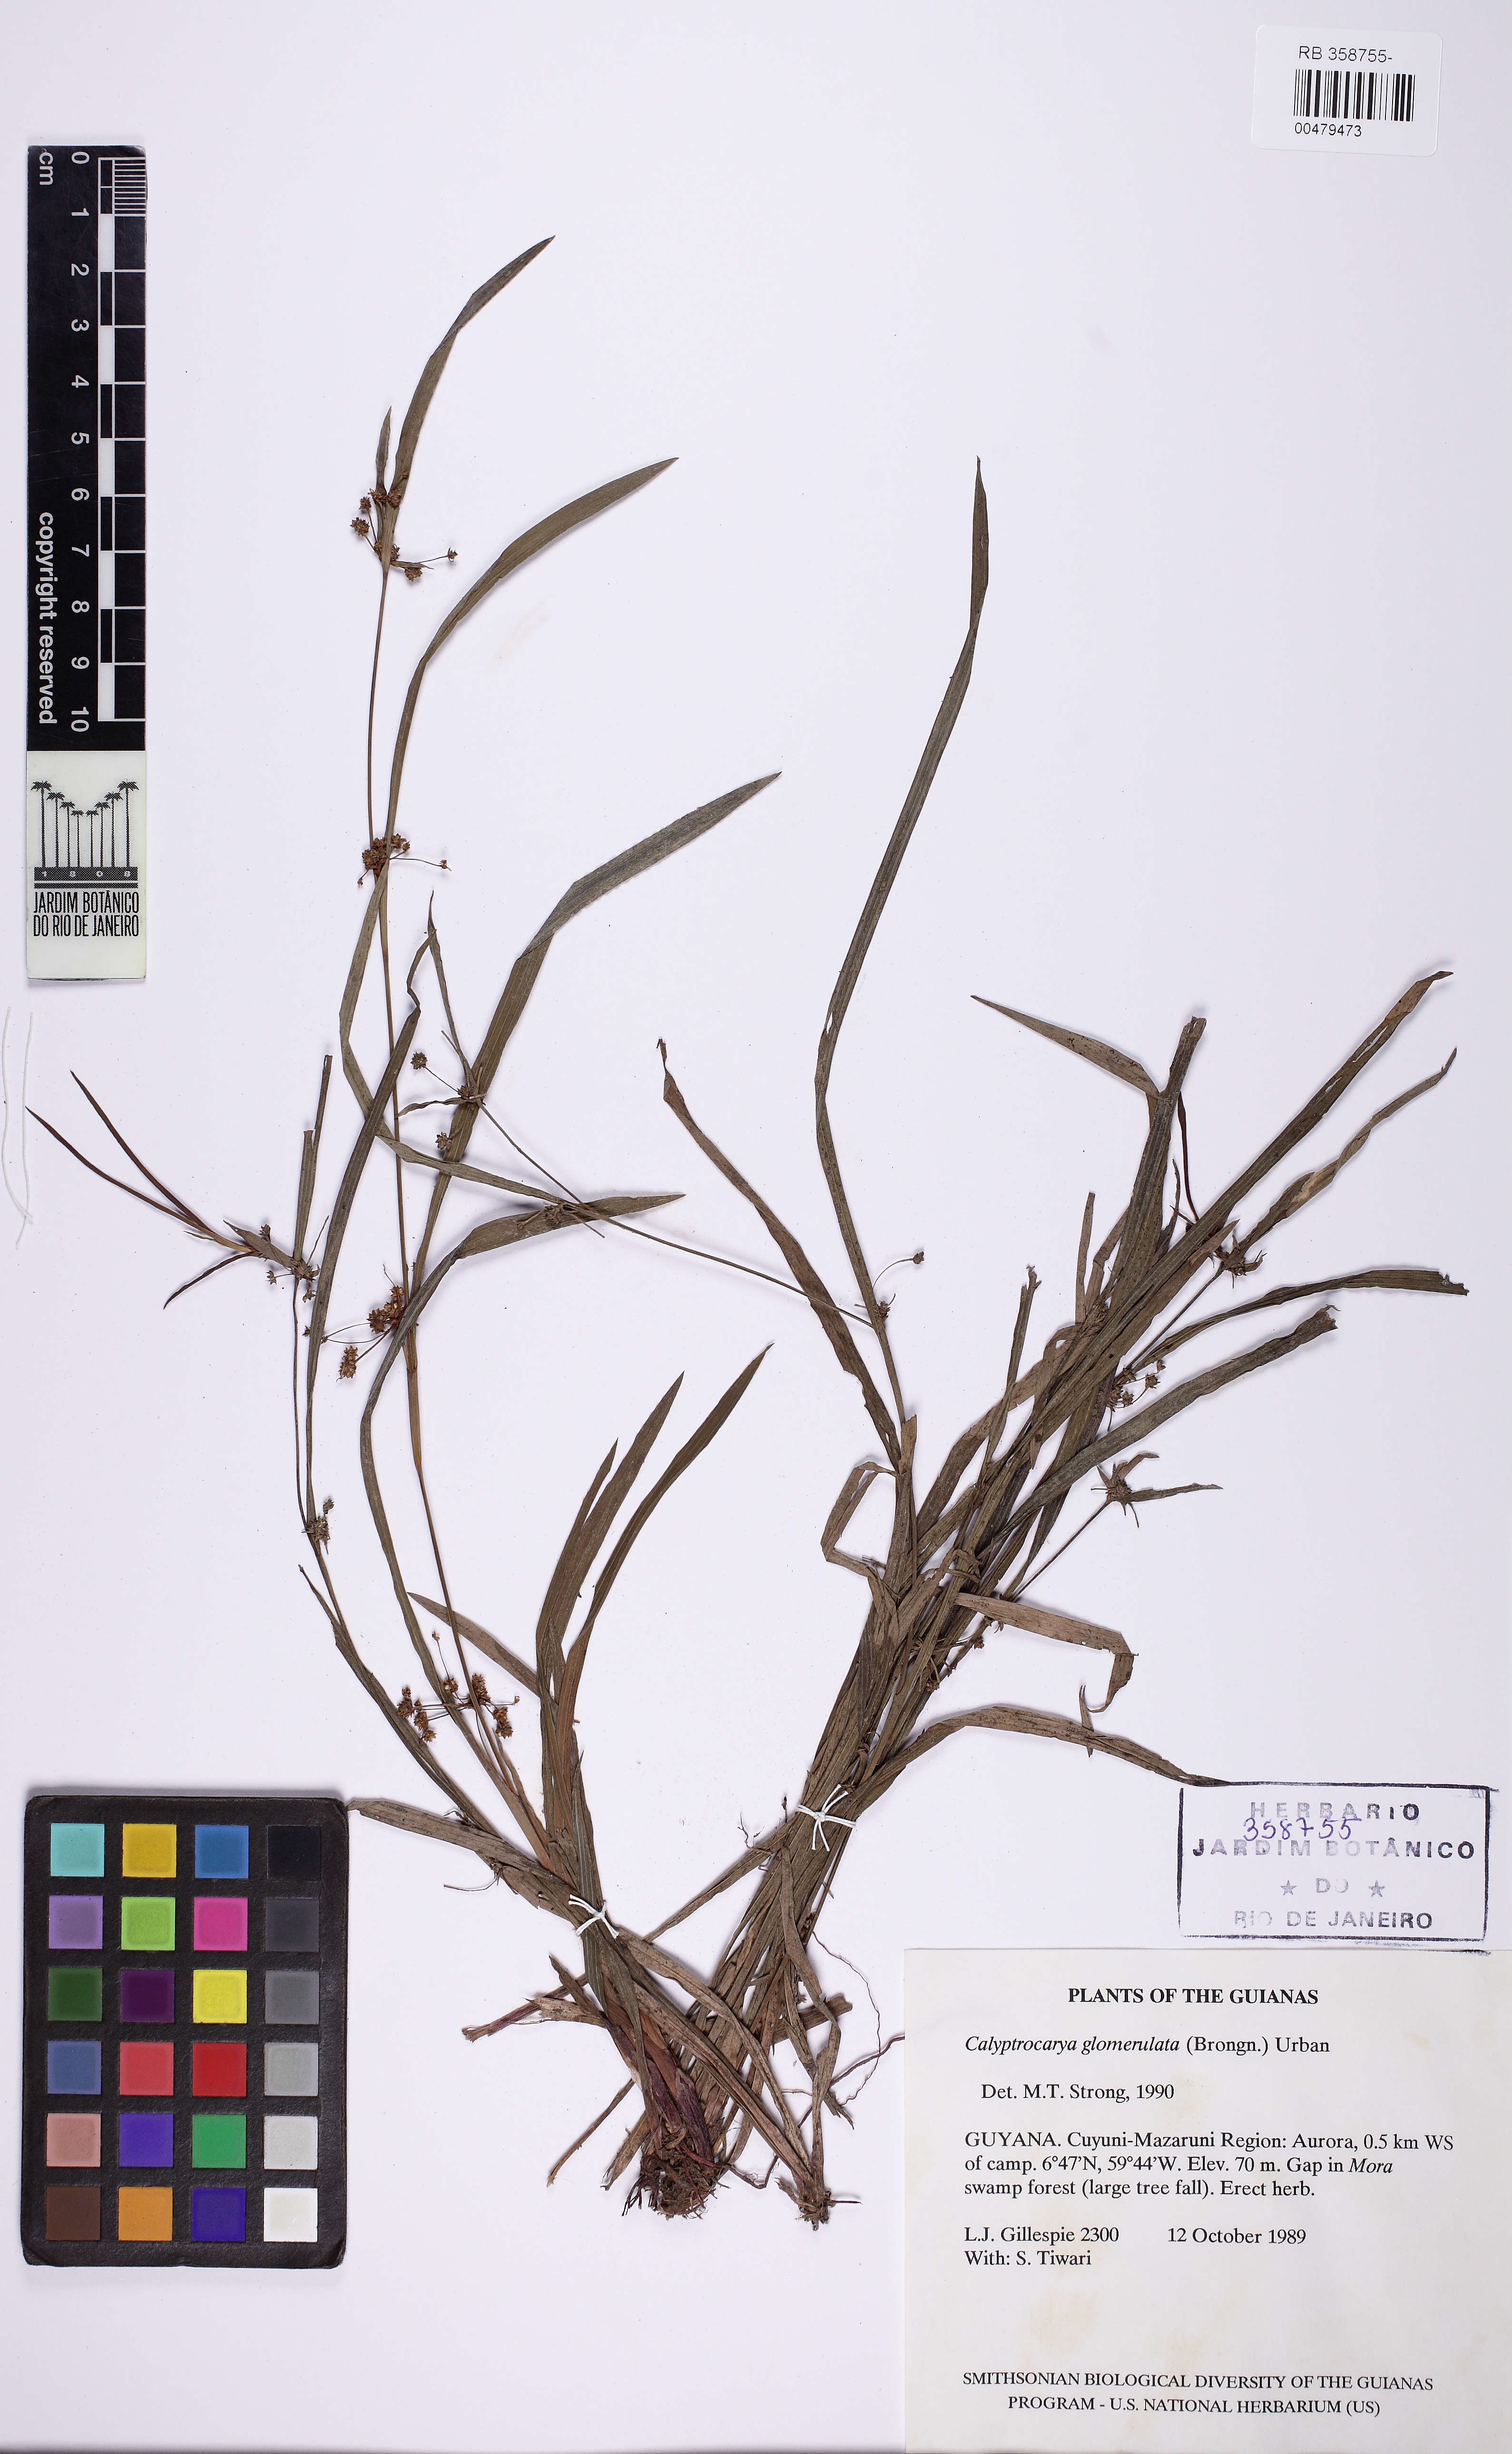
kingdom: Plantae
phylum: Tracheophyta
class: Liliopsida
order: Poales
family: Cyperaceae
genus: Calyptrocarya
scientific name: Calyptrocarya glomerulata
